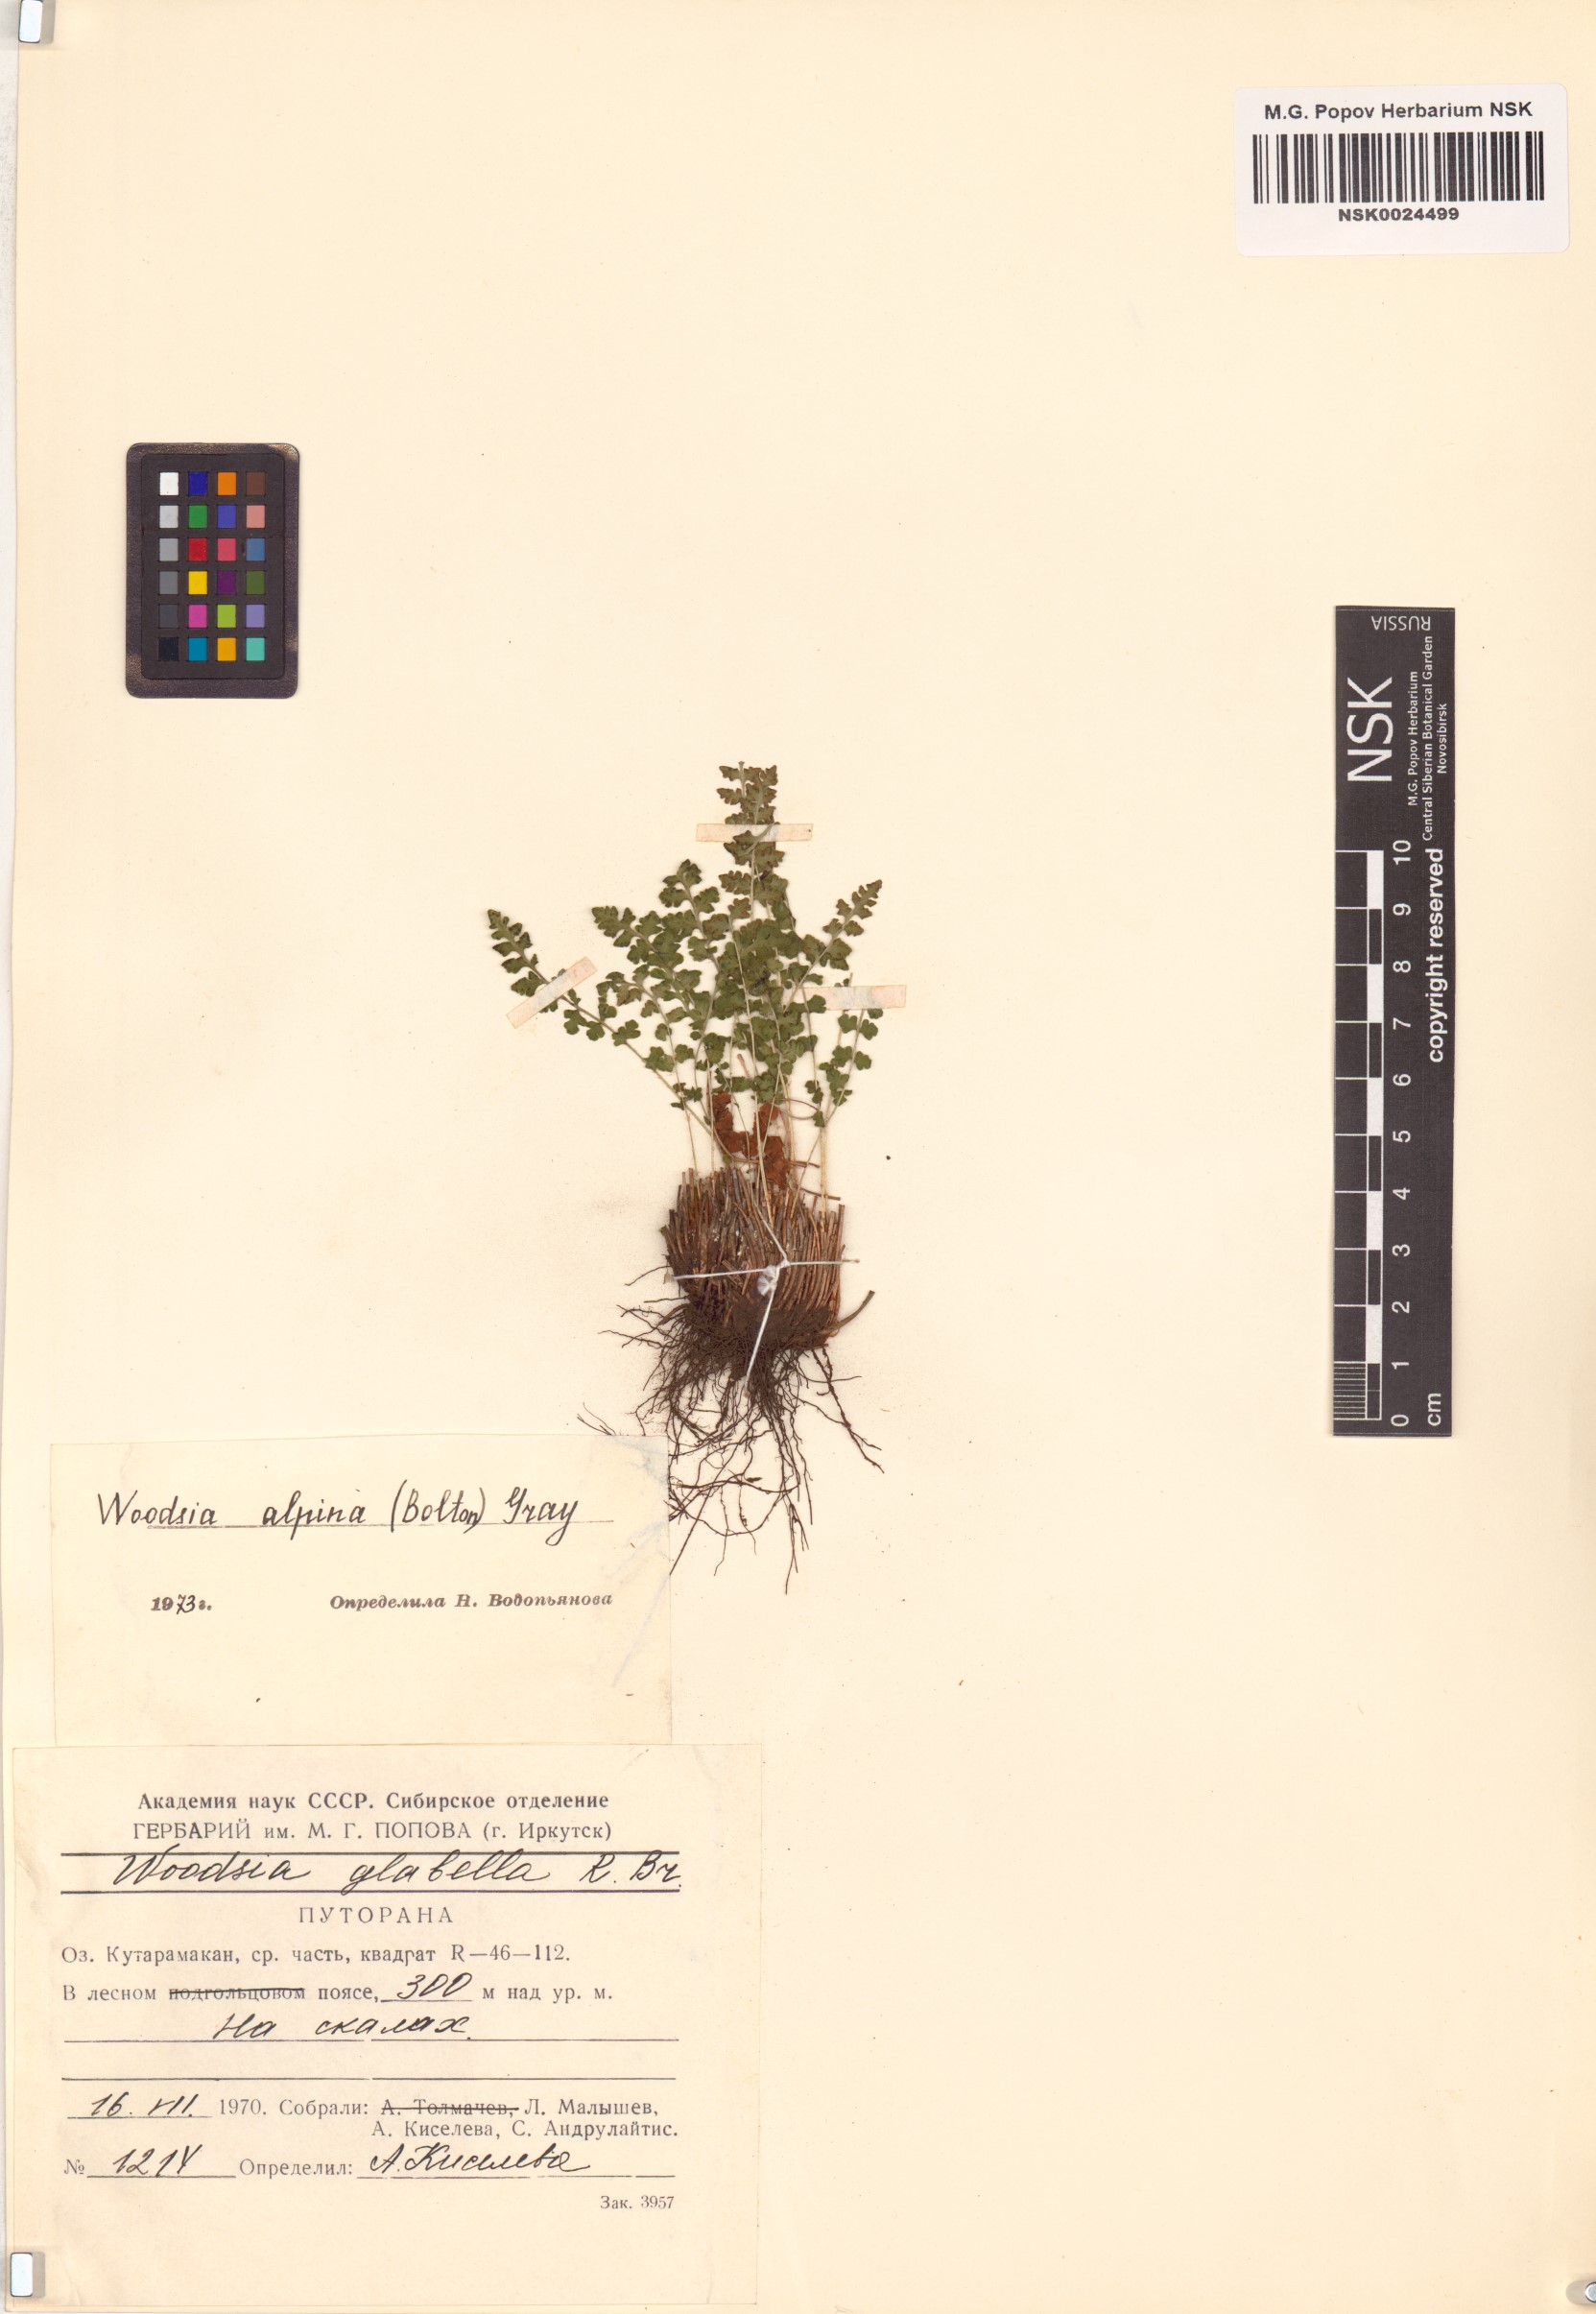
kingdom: Plantae
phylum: Tracheophyta
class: Polypodiopsida
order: Polypodiales
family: Woodsiaceae
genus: Woodsia
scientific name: Woodsia alpina
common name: Alpine woodsia
